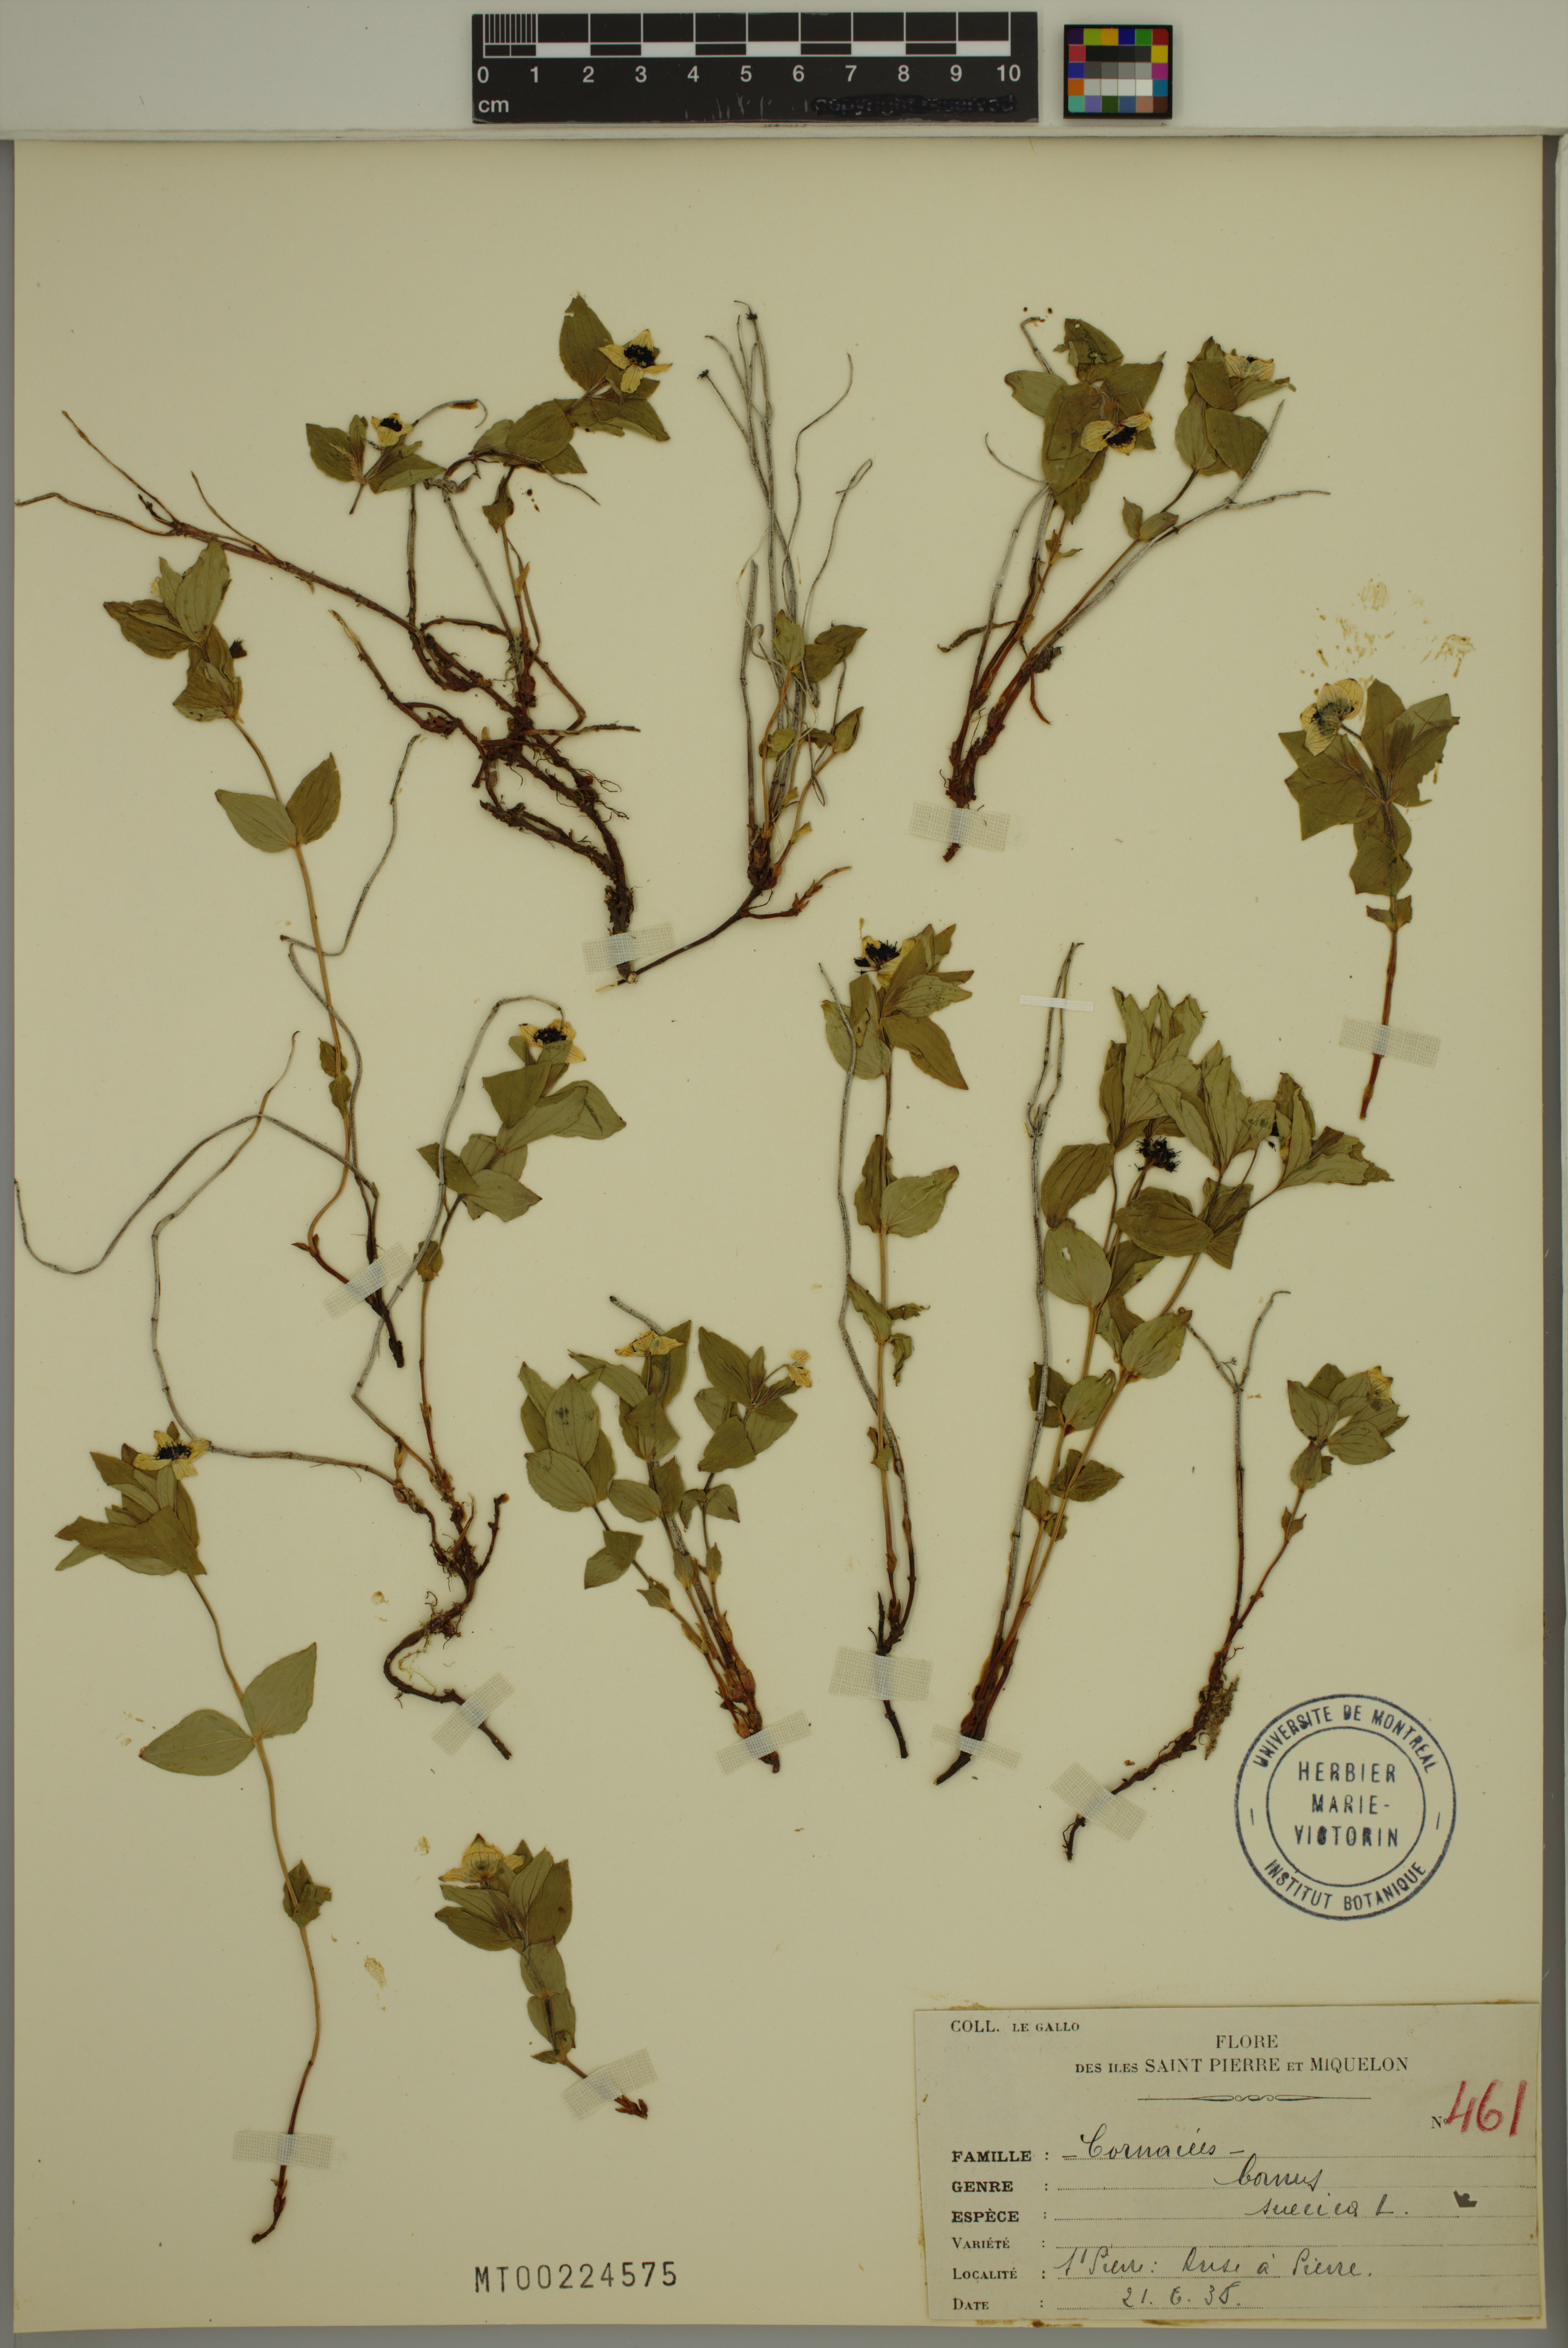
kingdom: Plantae
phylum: Tracheophyta
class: Magnoliopsida
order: Cornales
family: Cornaceae
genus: Cornus
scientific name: Cornus suecica
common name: Dwarf cornel
